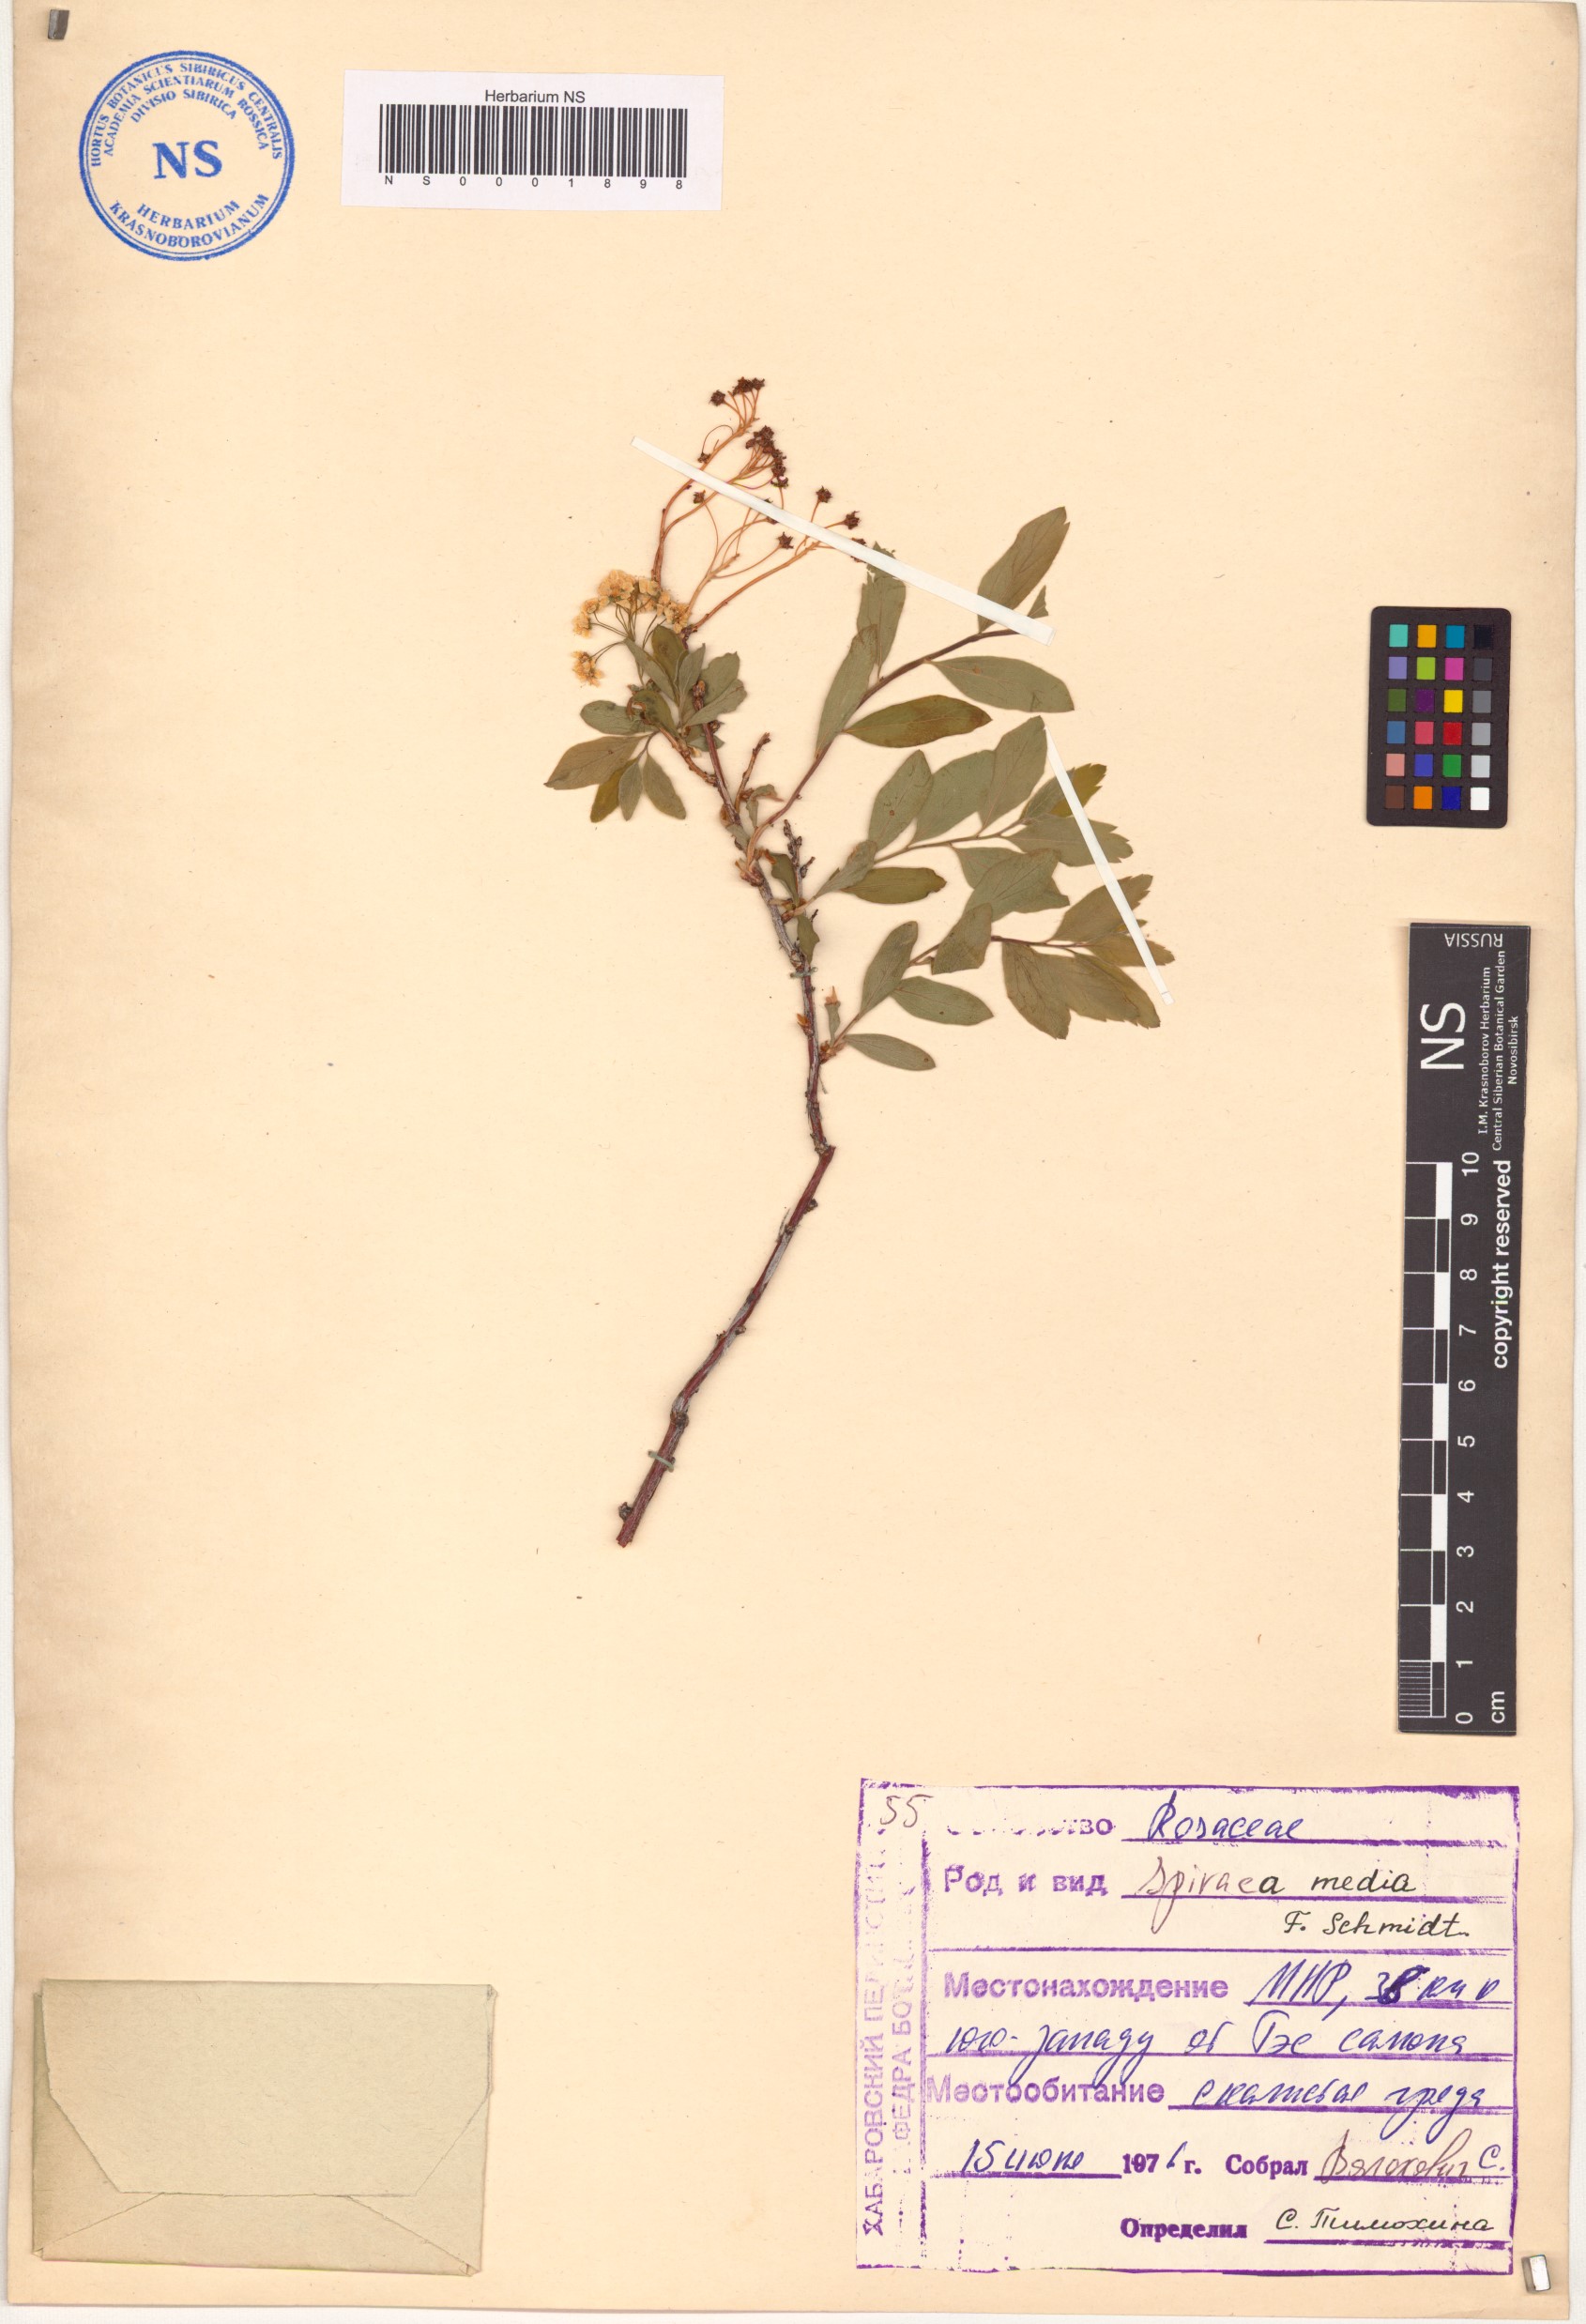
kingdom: Plantae
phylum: Tracheophyta
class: Magnoliopsida
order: Rosales
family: Rosaceae
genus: Spiraea
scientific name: Spiraea media
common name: Russian spiraea
